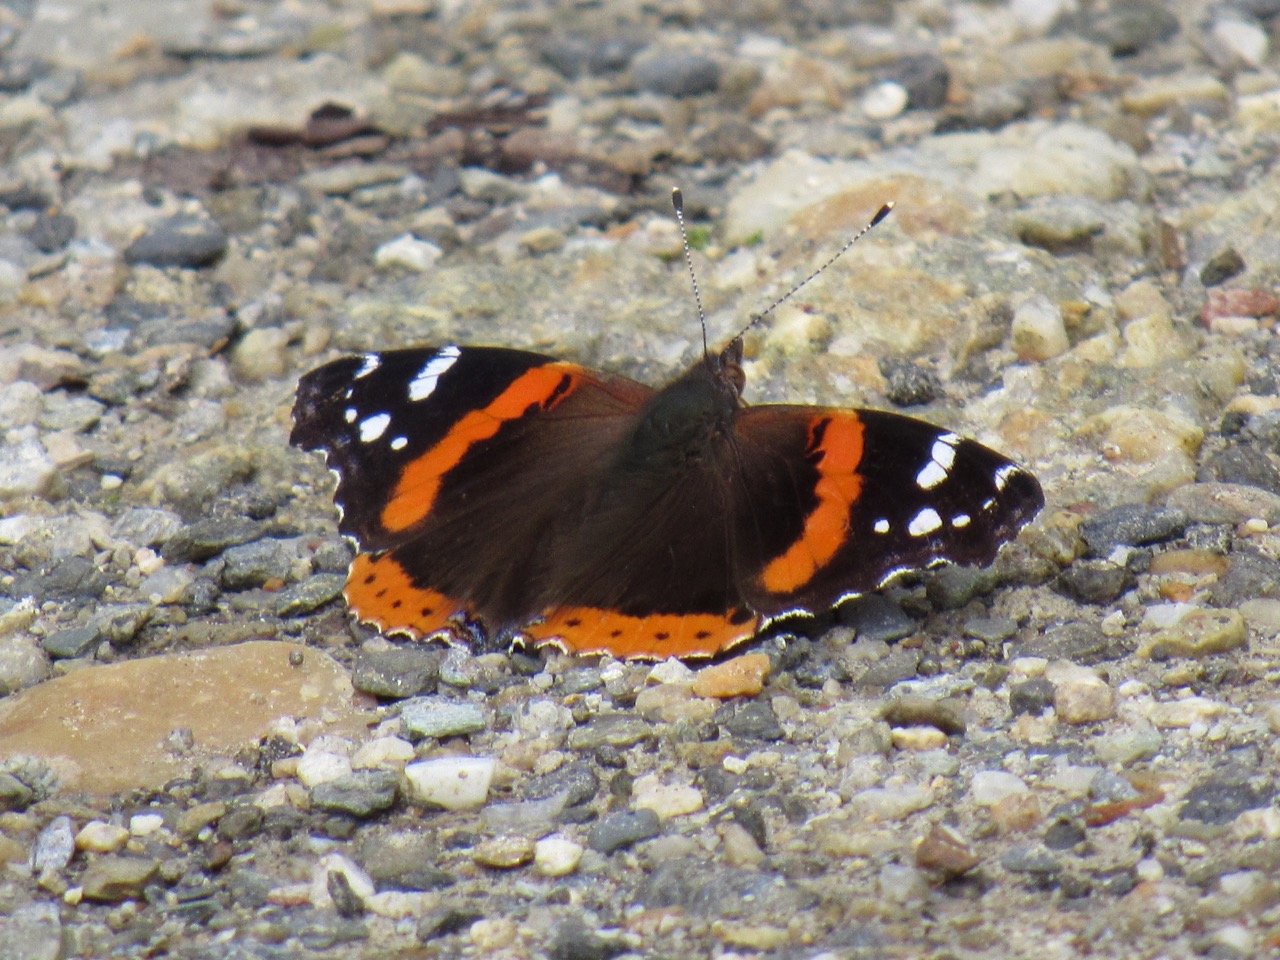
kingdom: Animalia
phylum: Arthropoda
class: Insecta
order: Lepidoptera
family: Nymphalidae
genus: Vanessa
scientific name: Vanessa atalanta
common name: Red Admiral
